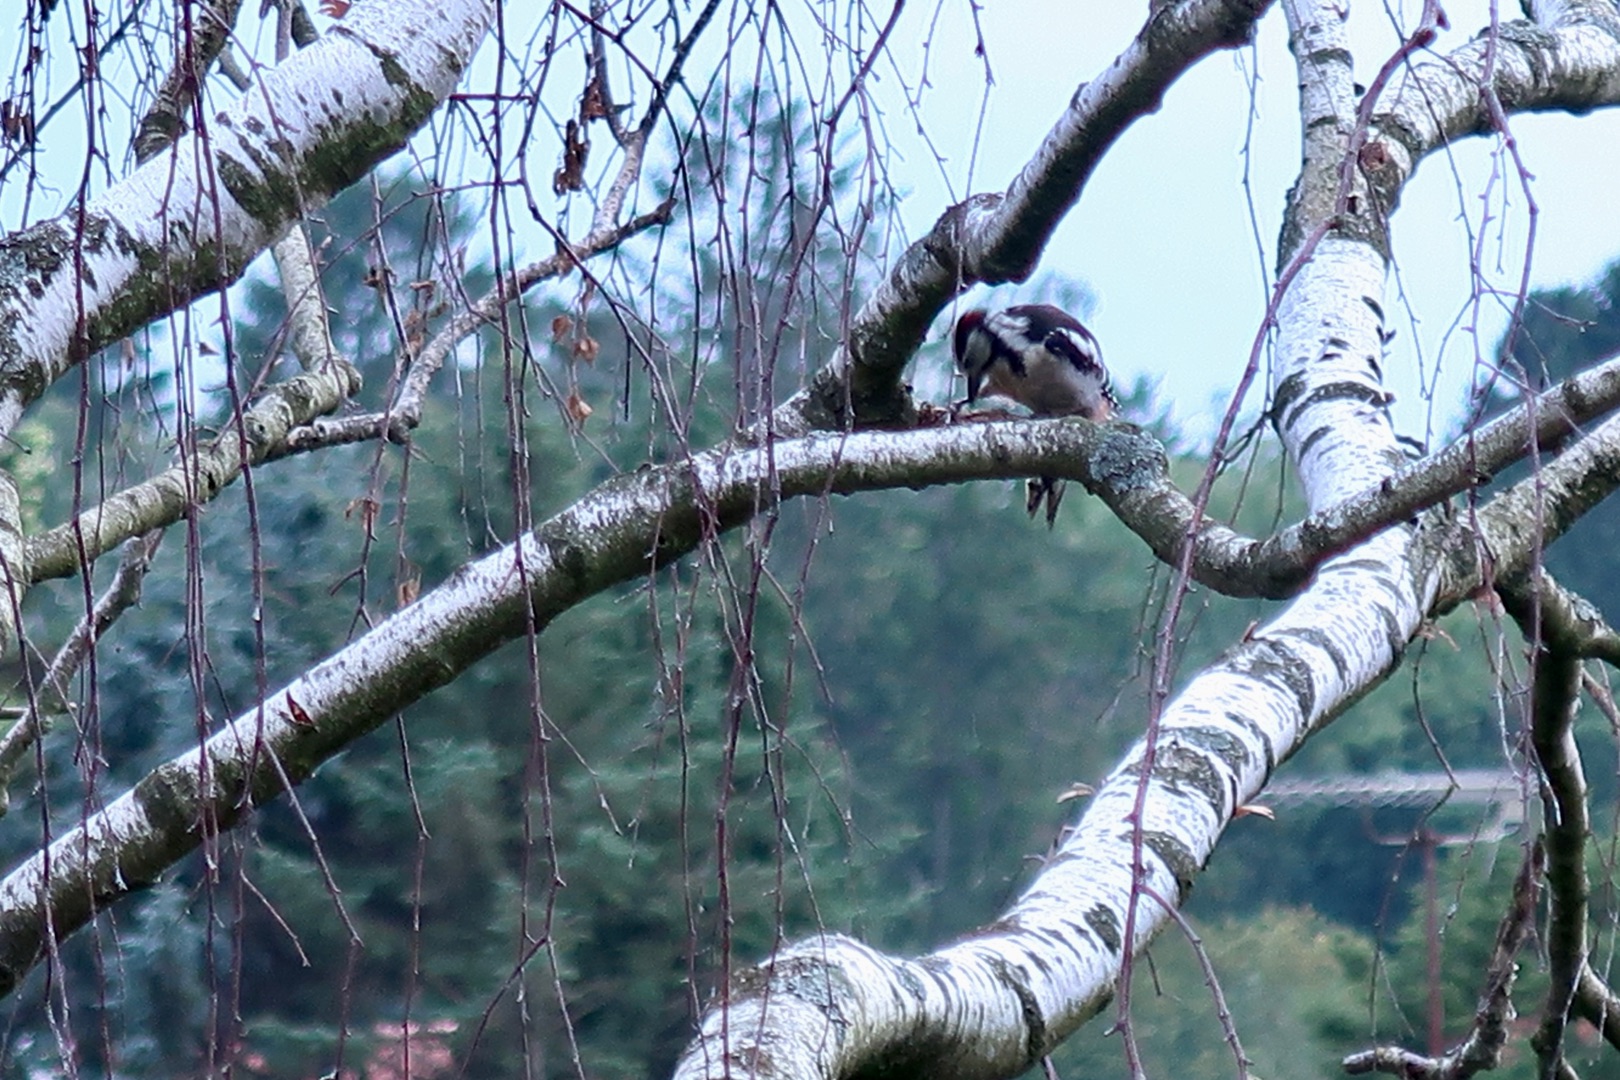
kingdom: Animalia
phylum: Chordata
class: Aves
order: Piciformes
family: Picidae
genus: Dendrocopos
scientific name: Dendrocopos major
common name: Stor flagspætte
